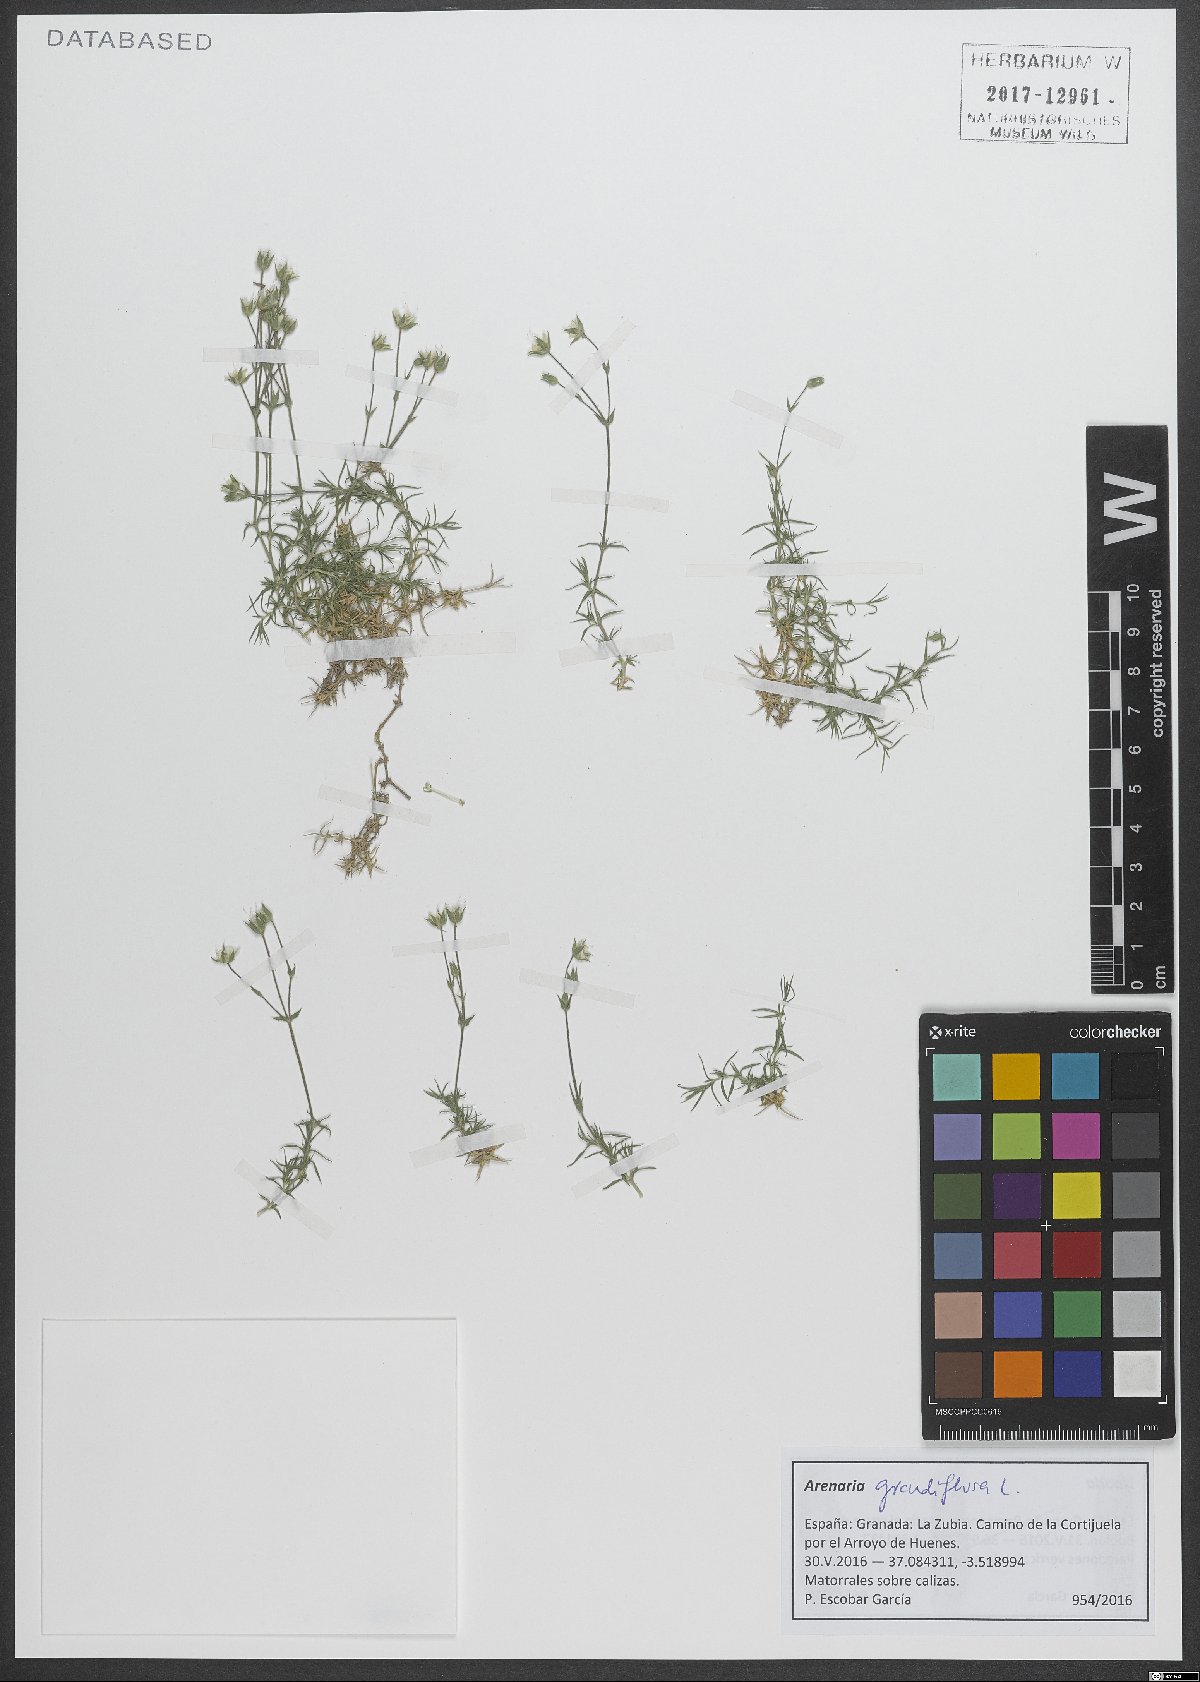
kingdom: Plantae
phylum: Tracheophyta
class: Magnoliopsida
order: Caryophyllales
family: Caryophyllaceae
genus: Arenaria
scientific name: Arenaria grandiflora
